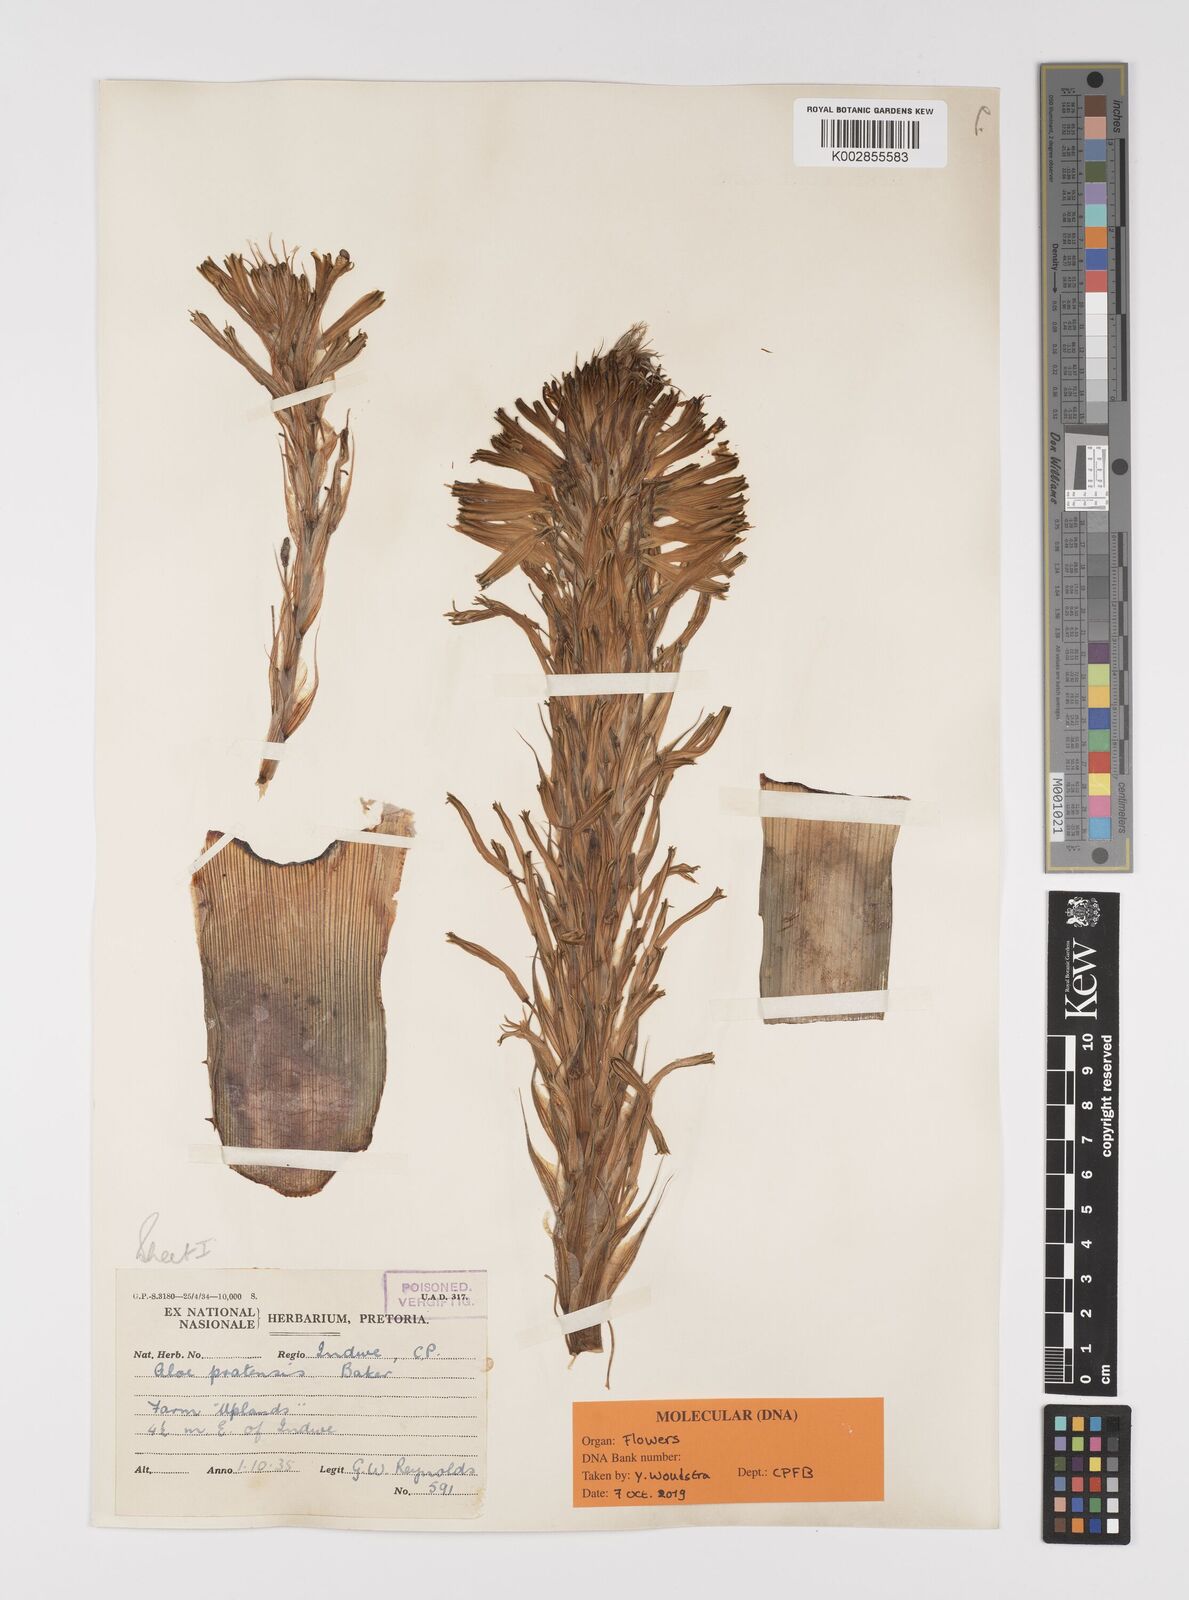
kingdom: Plantae
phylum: Tracheophyta
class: Liliopsida
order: Asparagales
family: Asphodelaceae
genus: Aloe
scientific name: Aloe pratensis
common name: Meadow aloe
